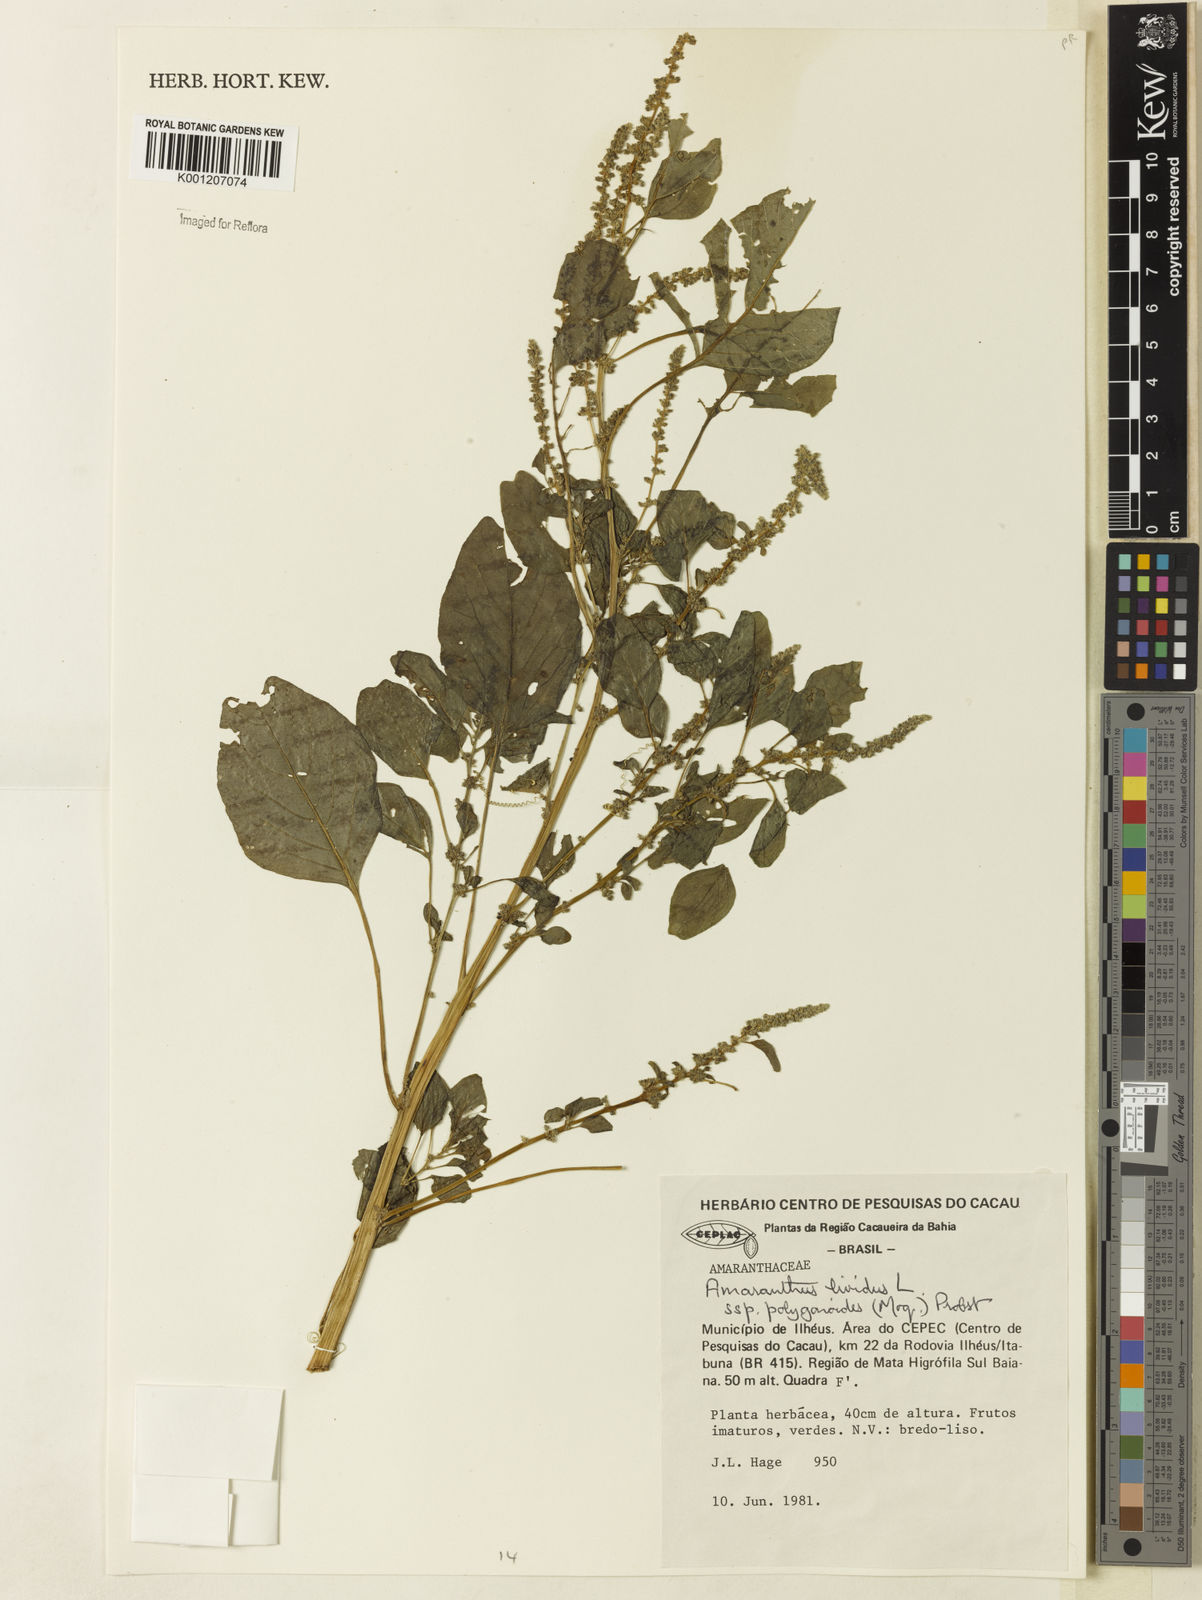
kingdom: Plantae
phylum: Tracheophyta
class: Magnoliopsida
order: Caryophyllales
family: Amaranthaceae
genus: Amaranthus
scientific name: Amaranthus emarginatus
